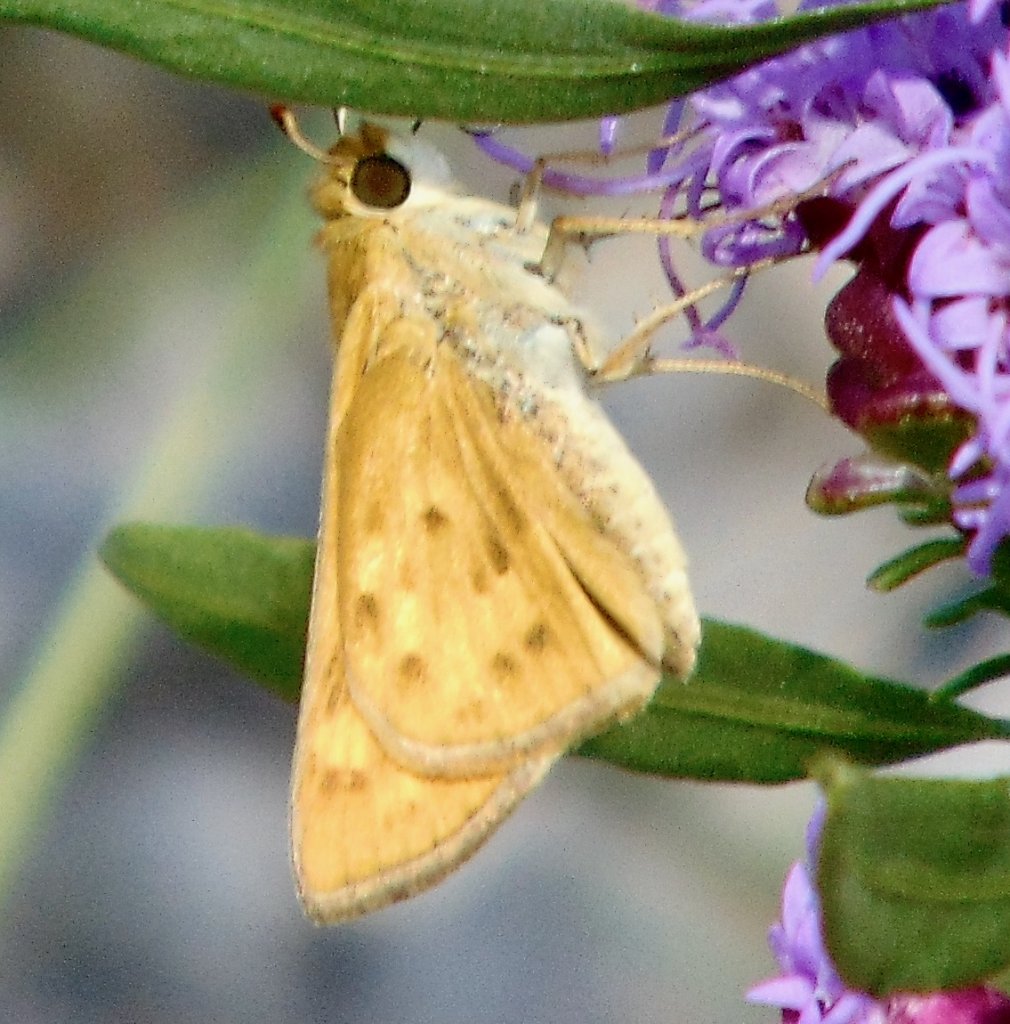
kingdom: Animalia
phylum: Arthropoda
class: Insecta
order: Lepidoptera
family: Hesperiidae
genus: Hylephila
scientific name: Hylephila phyleus
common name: Fiery Skipper
